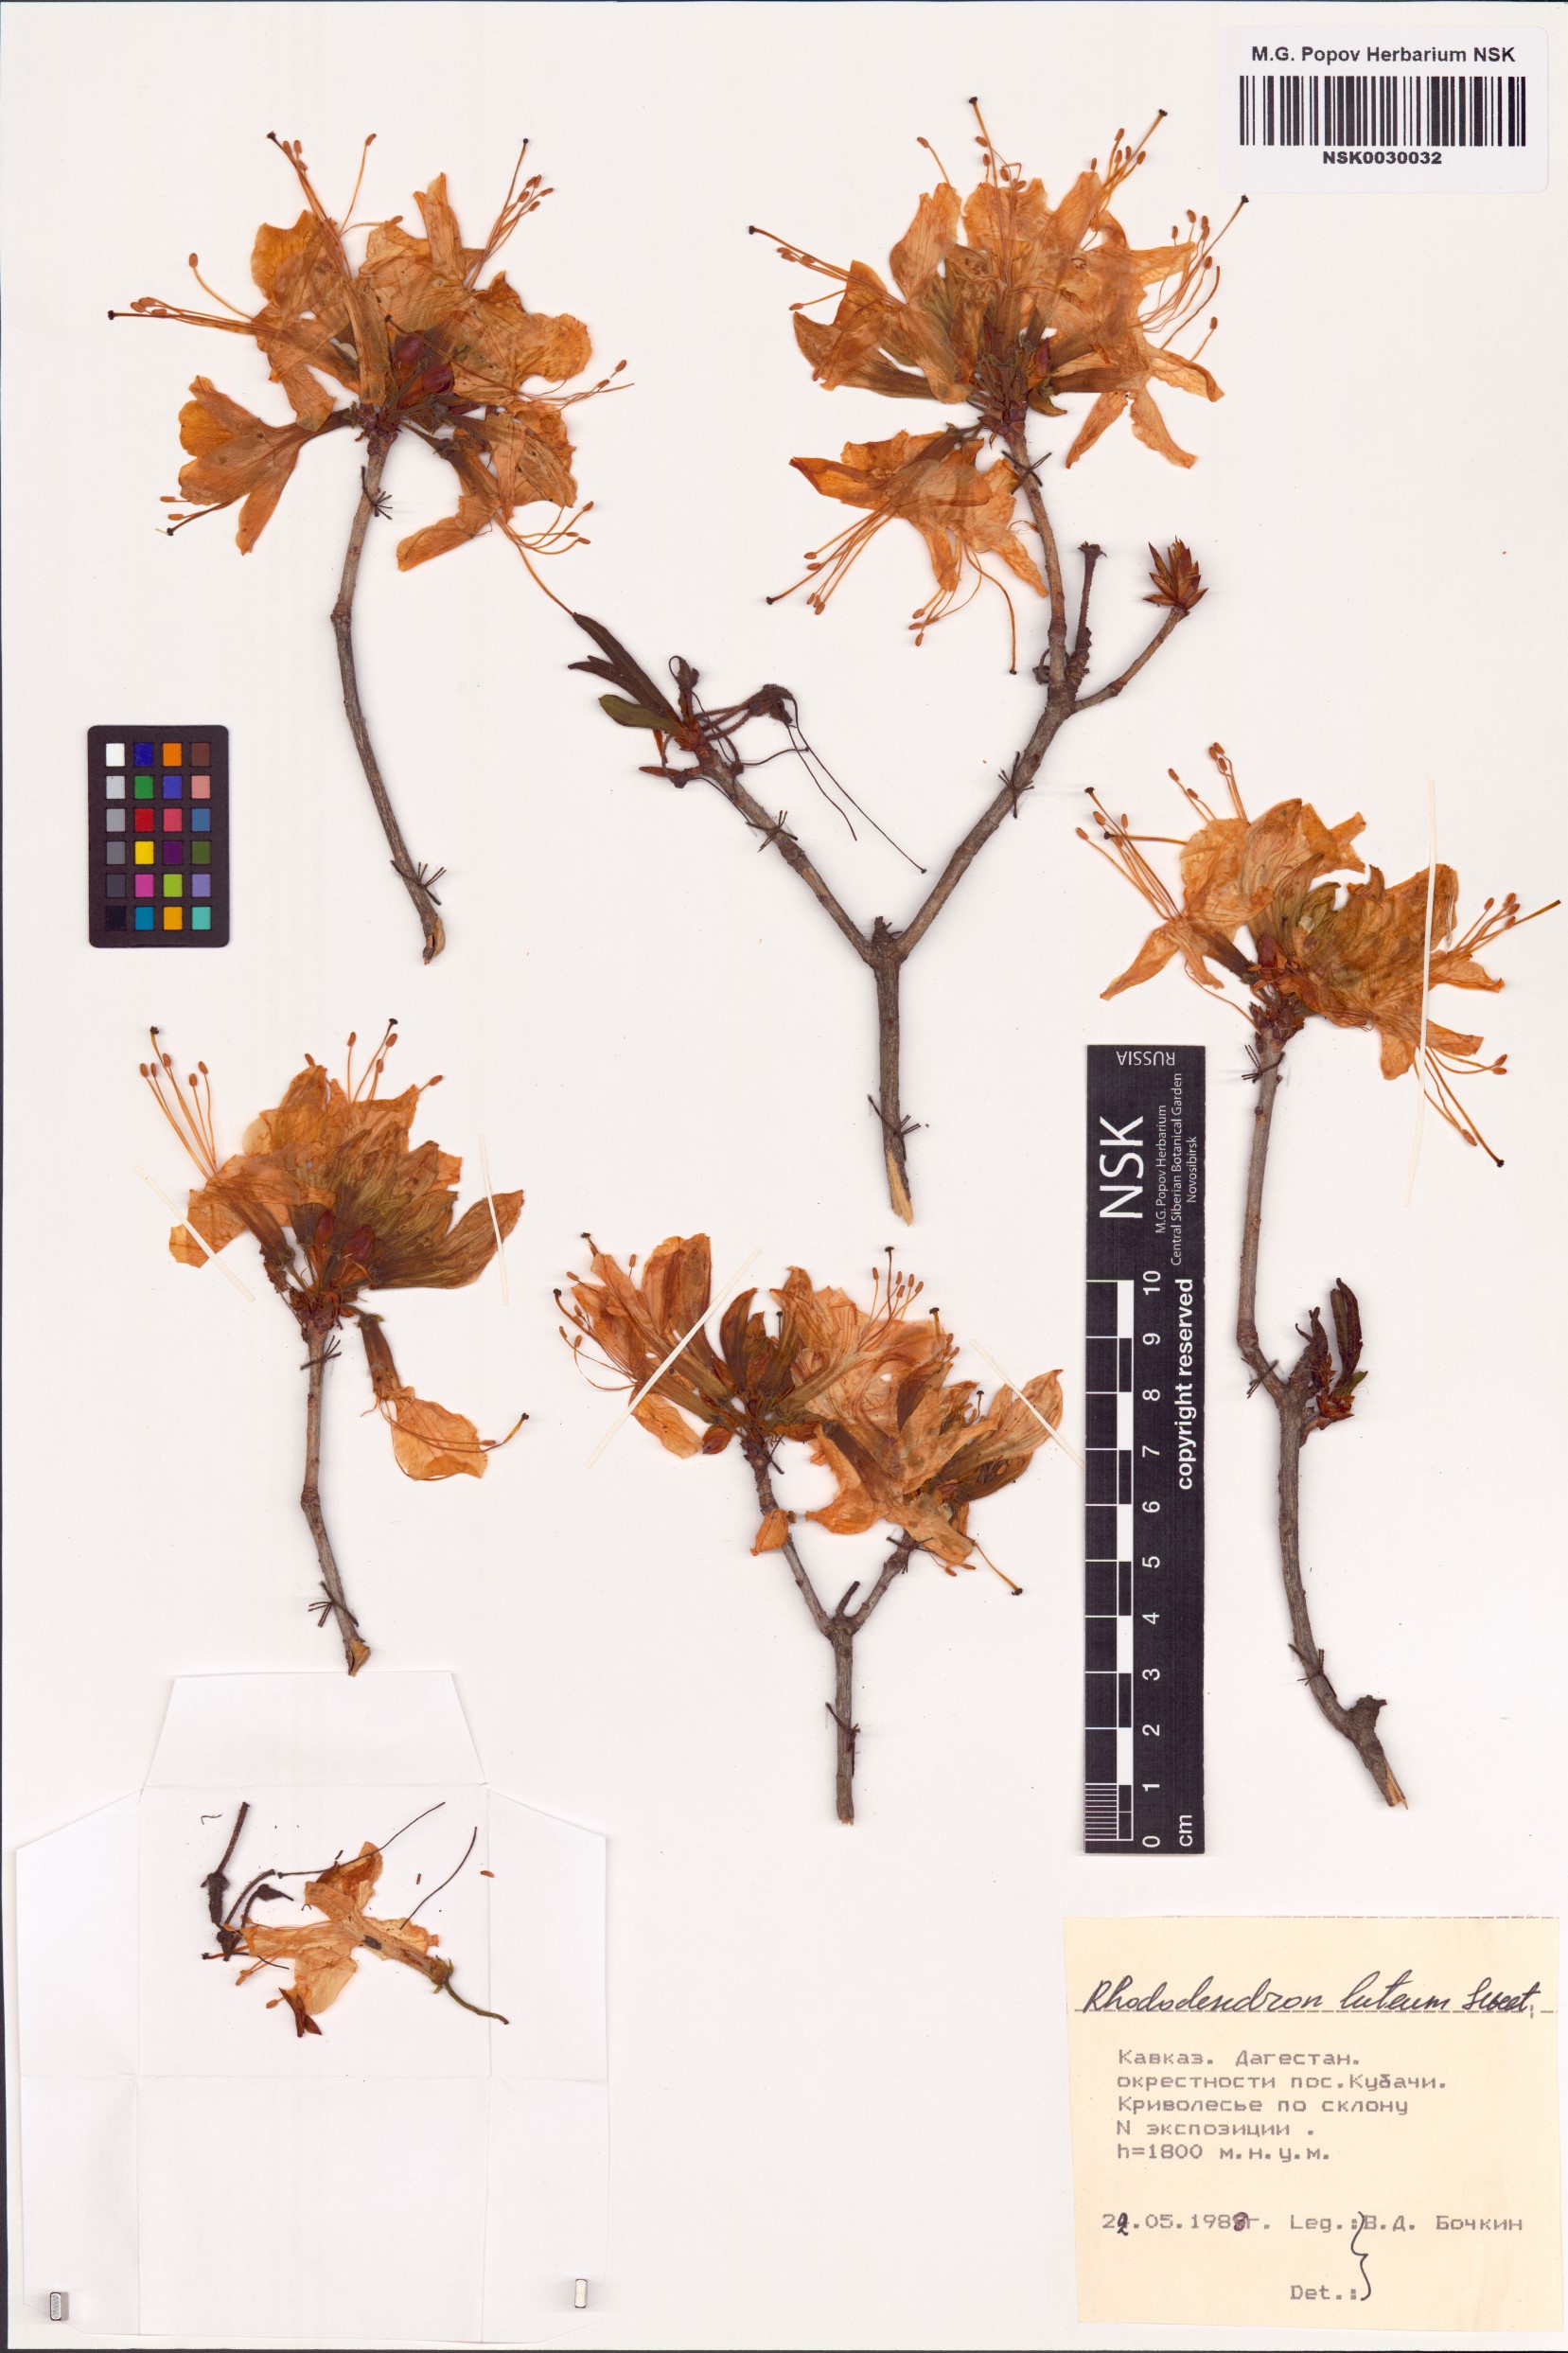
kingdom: Plantae
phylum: Tracheophyta
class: Magnoliopsida
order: Ericales
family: Ericaceae
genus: Rhododendron
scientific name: Rhododendron luteum
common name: Yellow azalea
